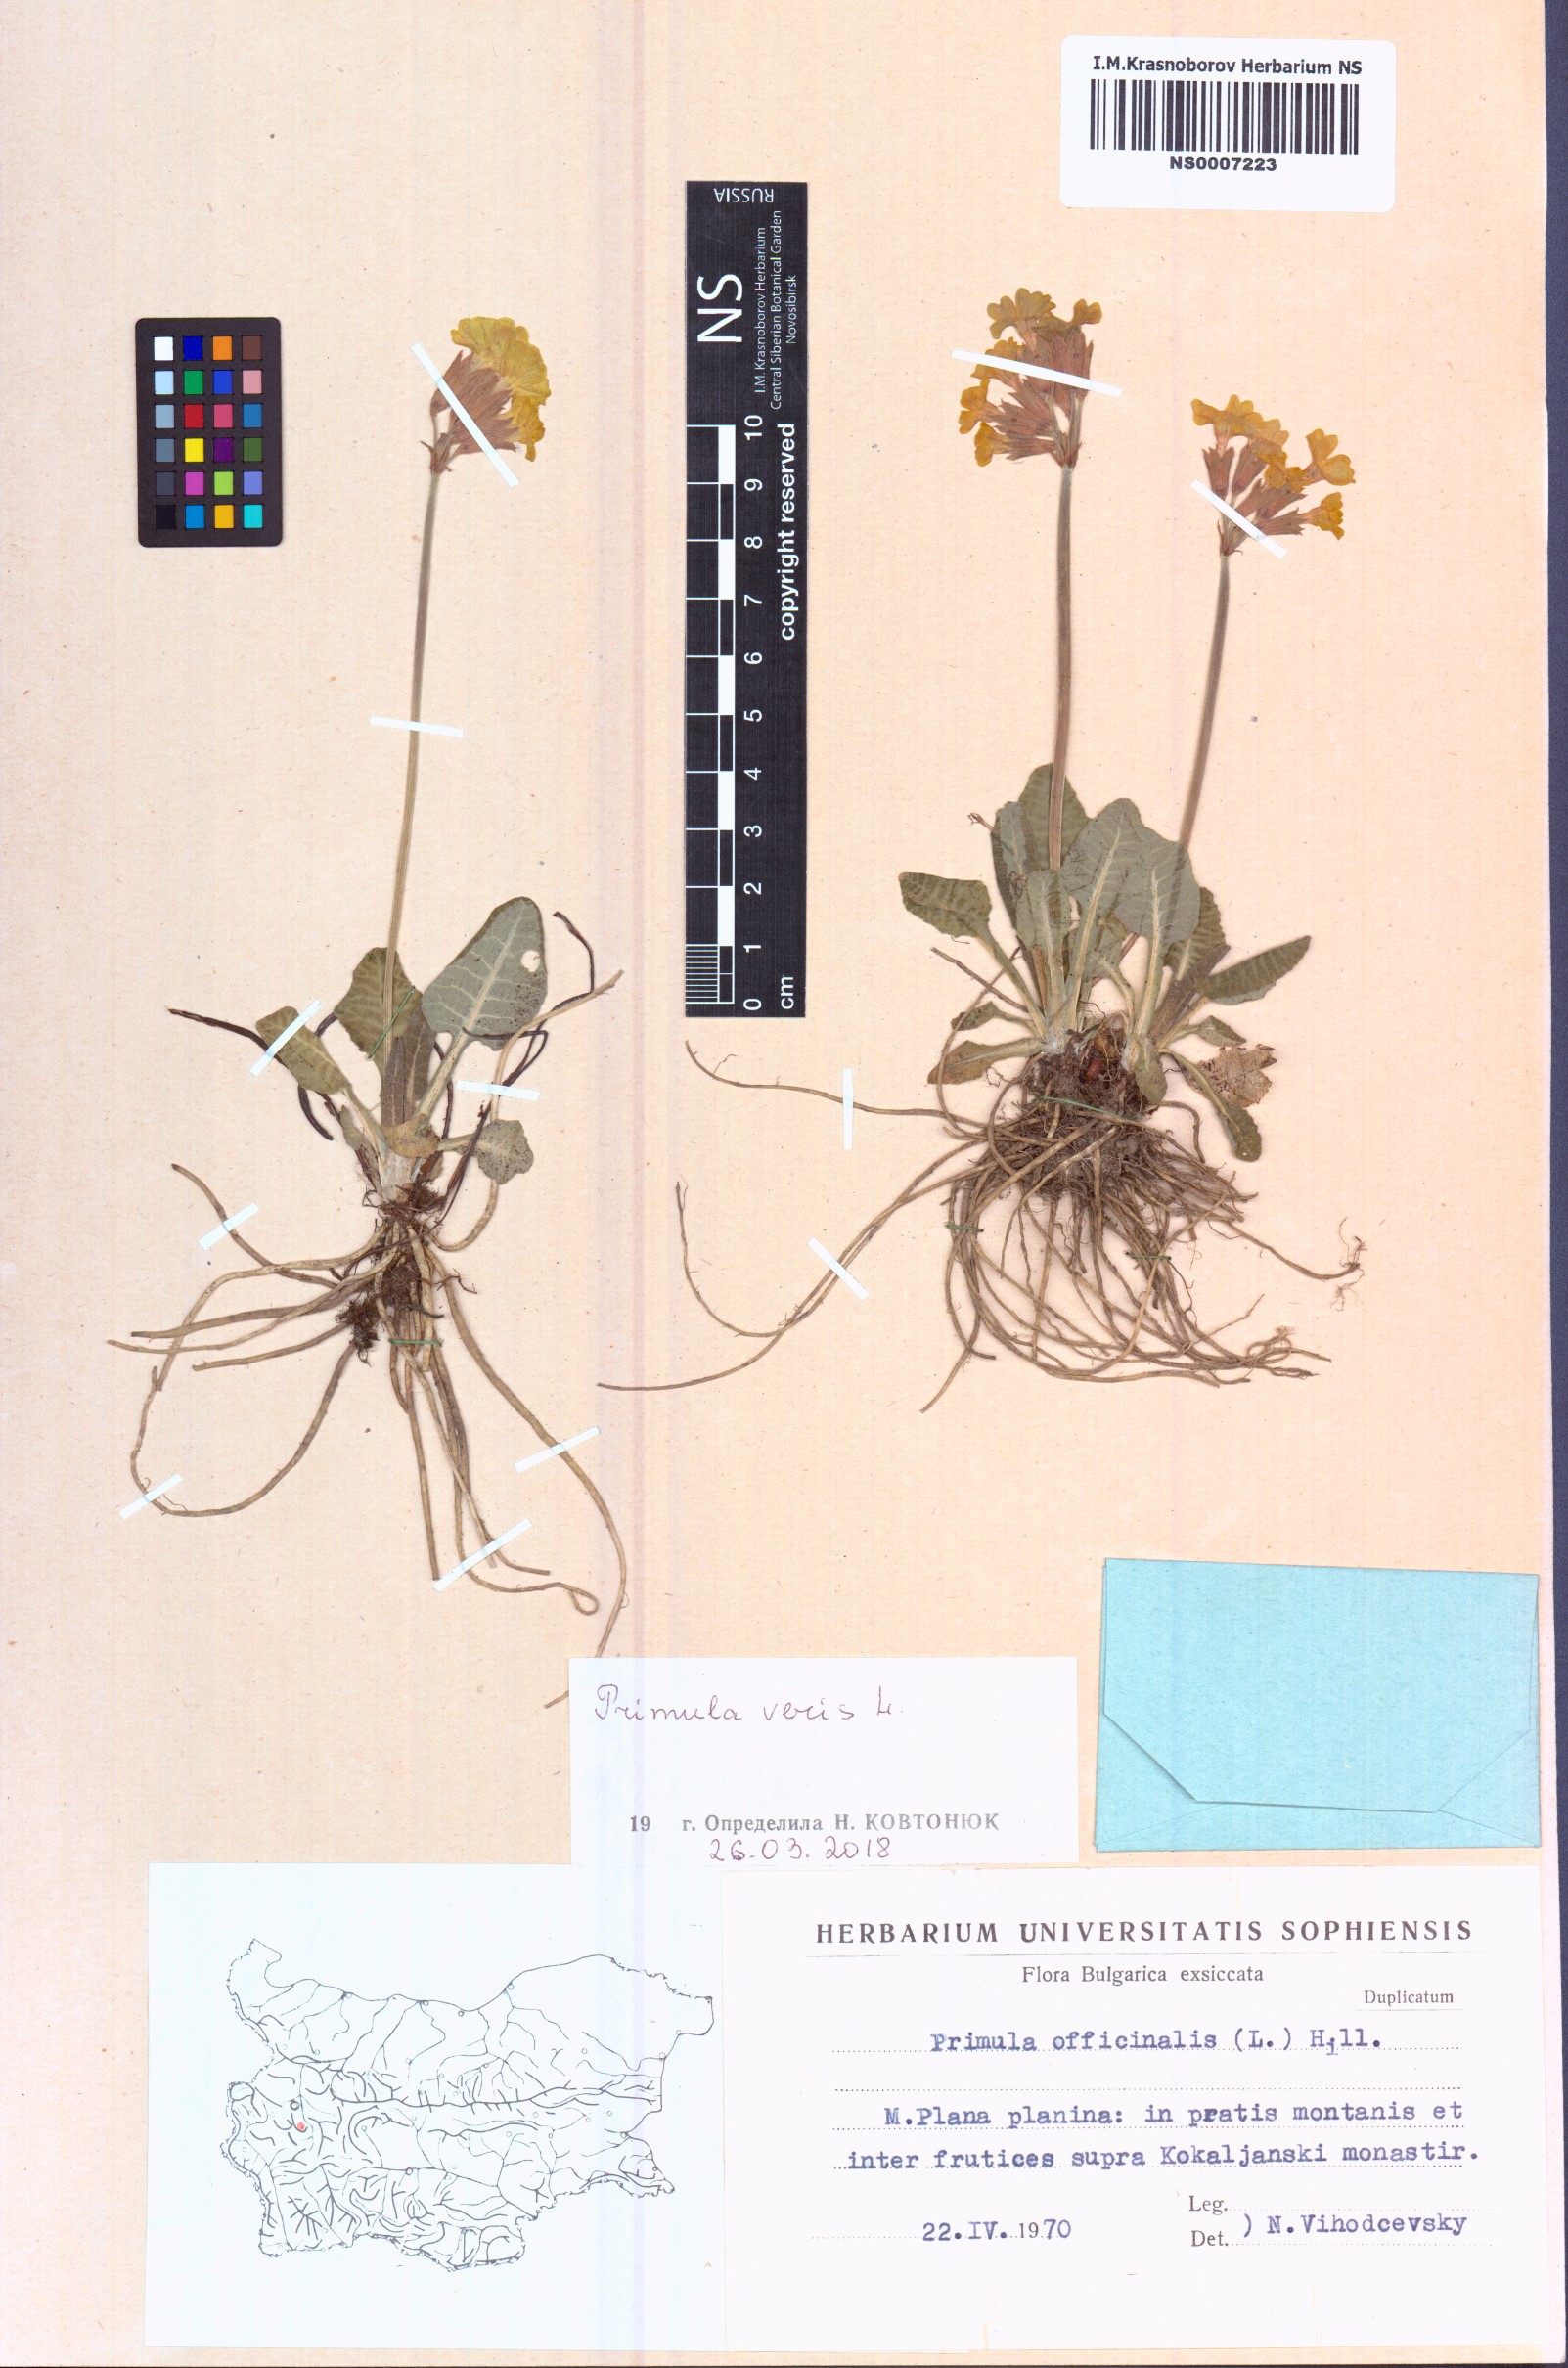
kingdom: Plantae
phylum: Tracheophyta
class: Magnoliopsida
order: Ericales
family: Primulaceae
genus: Primula
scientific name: Primula veris
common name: Cowslip
